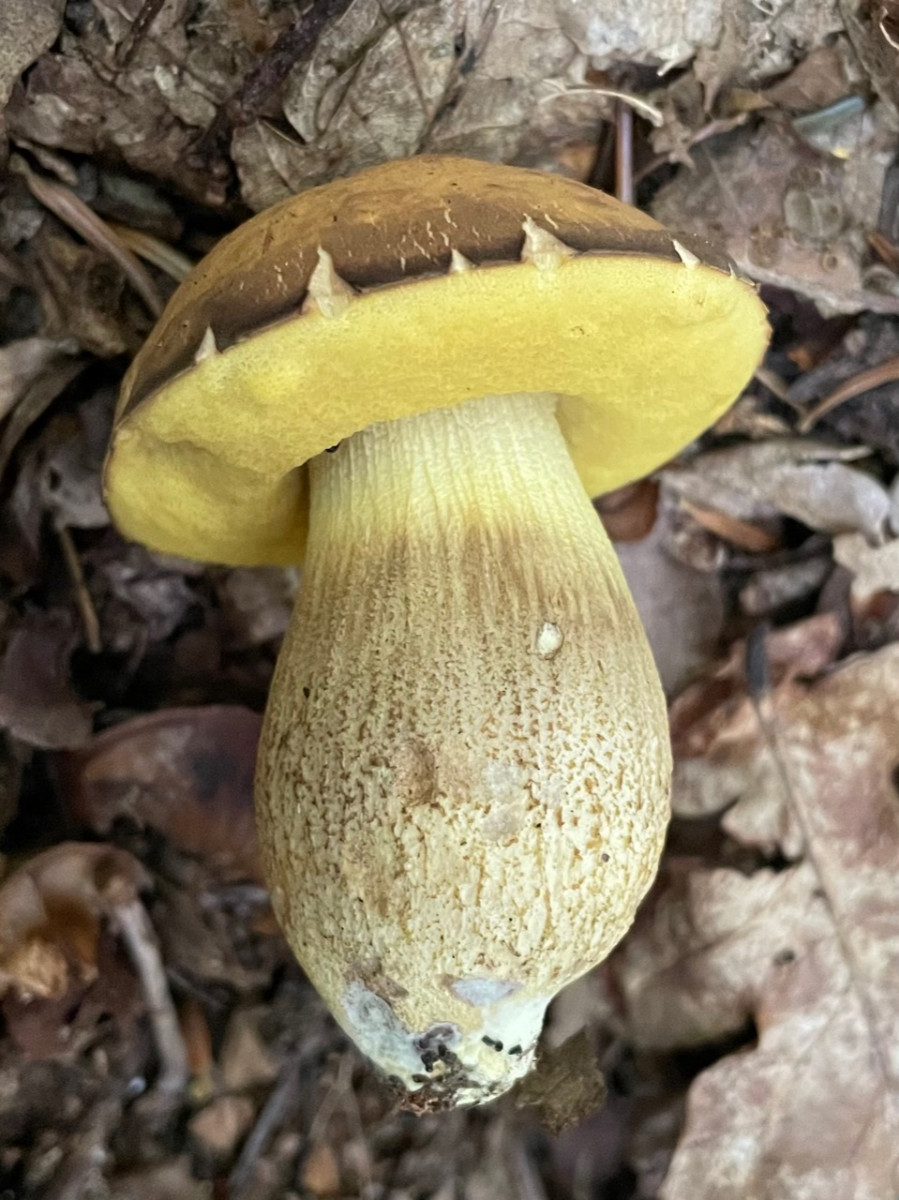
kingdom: Fungi
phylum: Basidiomycota
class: Agaricomycetes
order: Boletales
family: Boletaceae
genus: Leccinellum
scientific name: Leccinellum crocipodium
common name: gul skælrørhat
